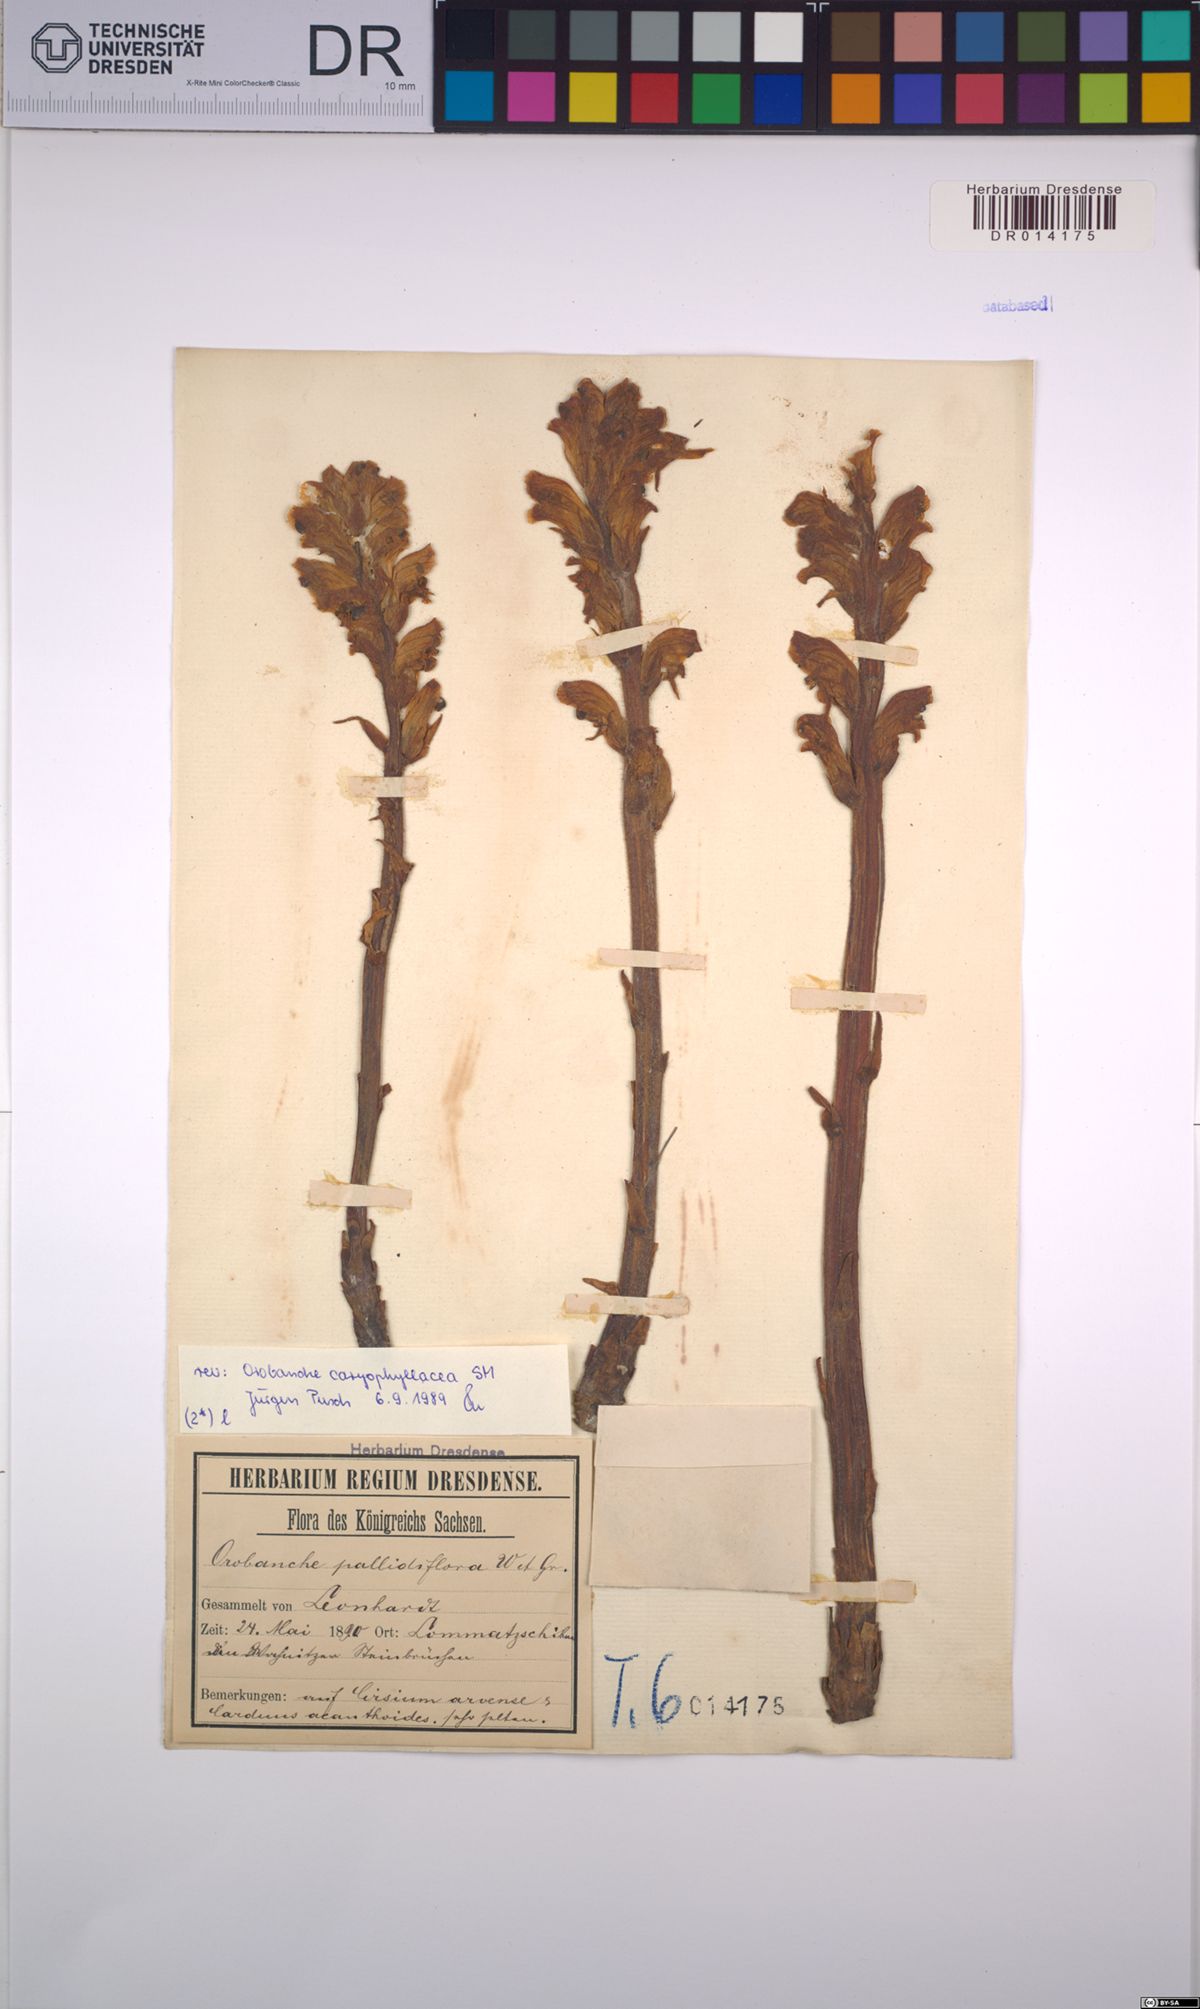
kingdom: Plantae
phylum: Tracheophyta
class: Magnoliopsida
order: Lamiales
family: Orobanchaceae
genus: Orobanche
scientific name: Orobanche caryophyllacea
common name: Bedstraw broomrape
